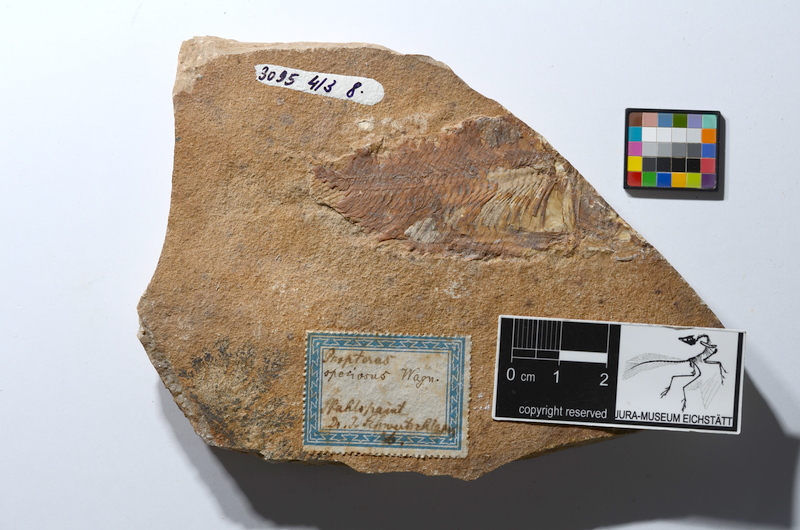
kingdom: Animalia
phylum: Chordata
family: Macrosemiidae
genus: Propterus
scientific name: Propterus elongatus
